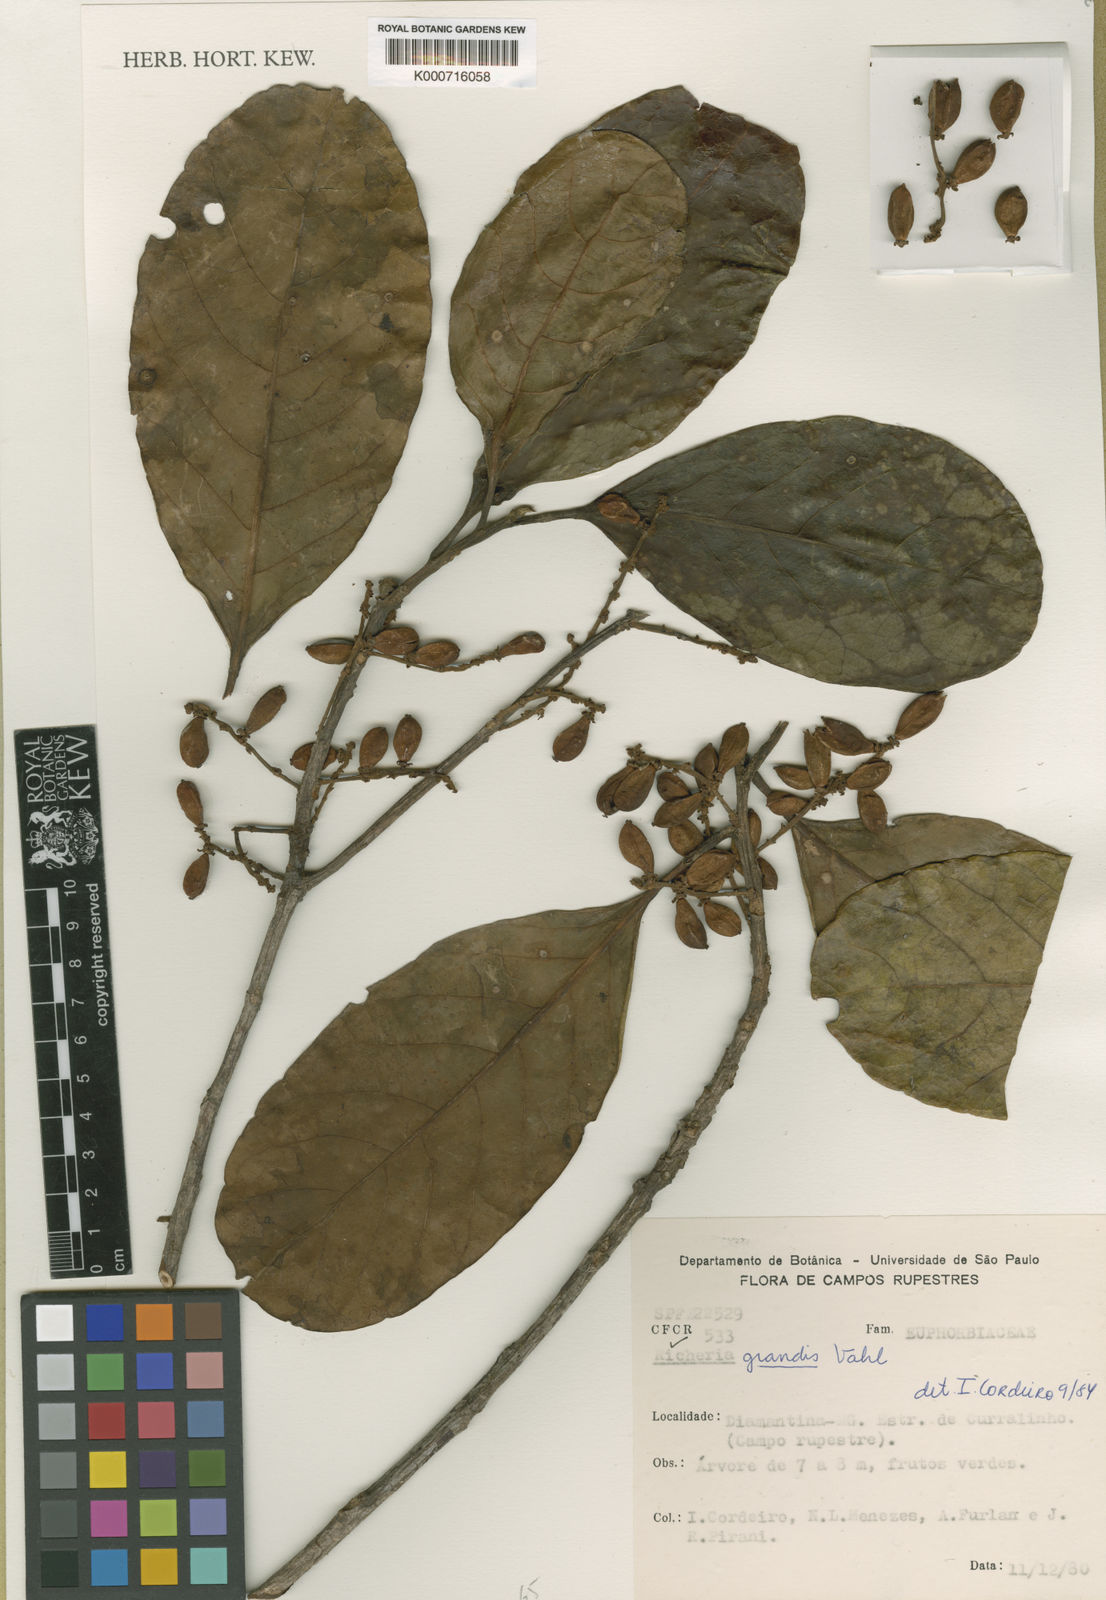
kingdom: Plantae
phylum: Tracheophyta
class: Magnoliopsida
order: Malpighiales
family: Phyllanthaceae
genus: Richeria
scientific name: Richeria grandis
